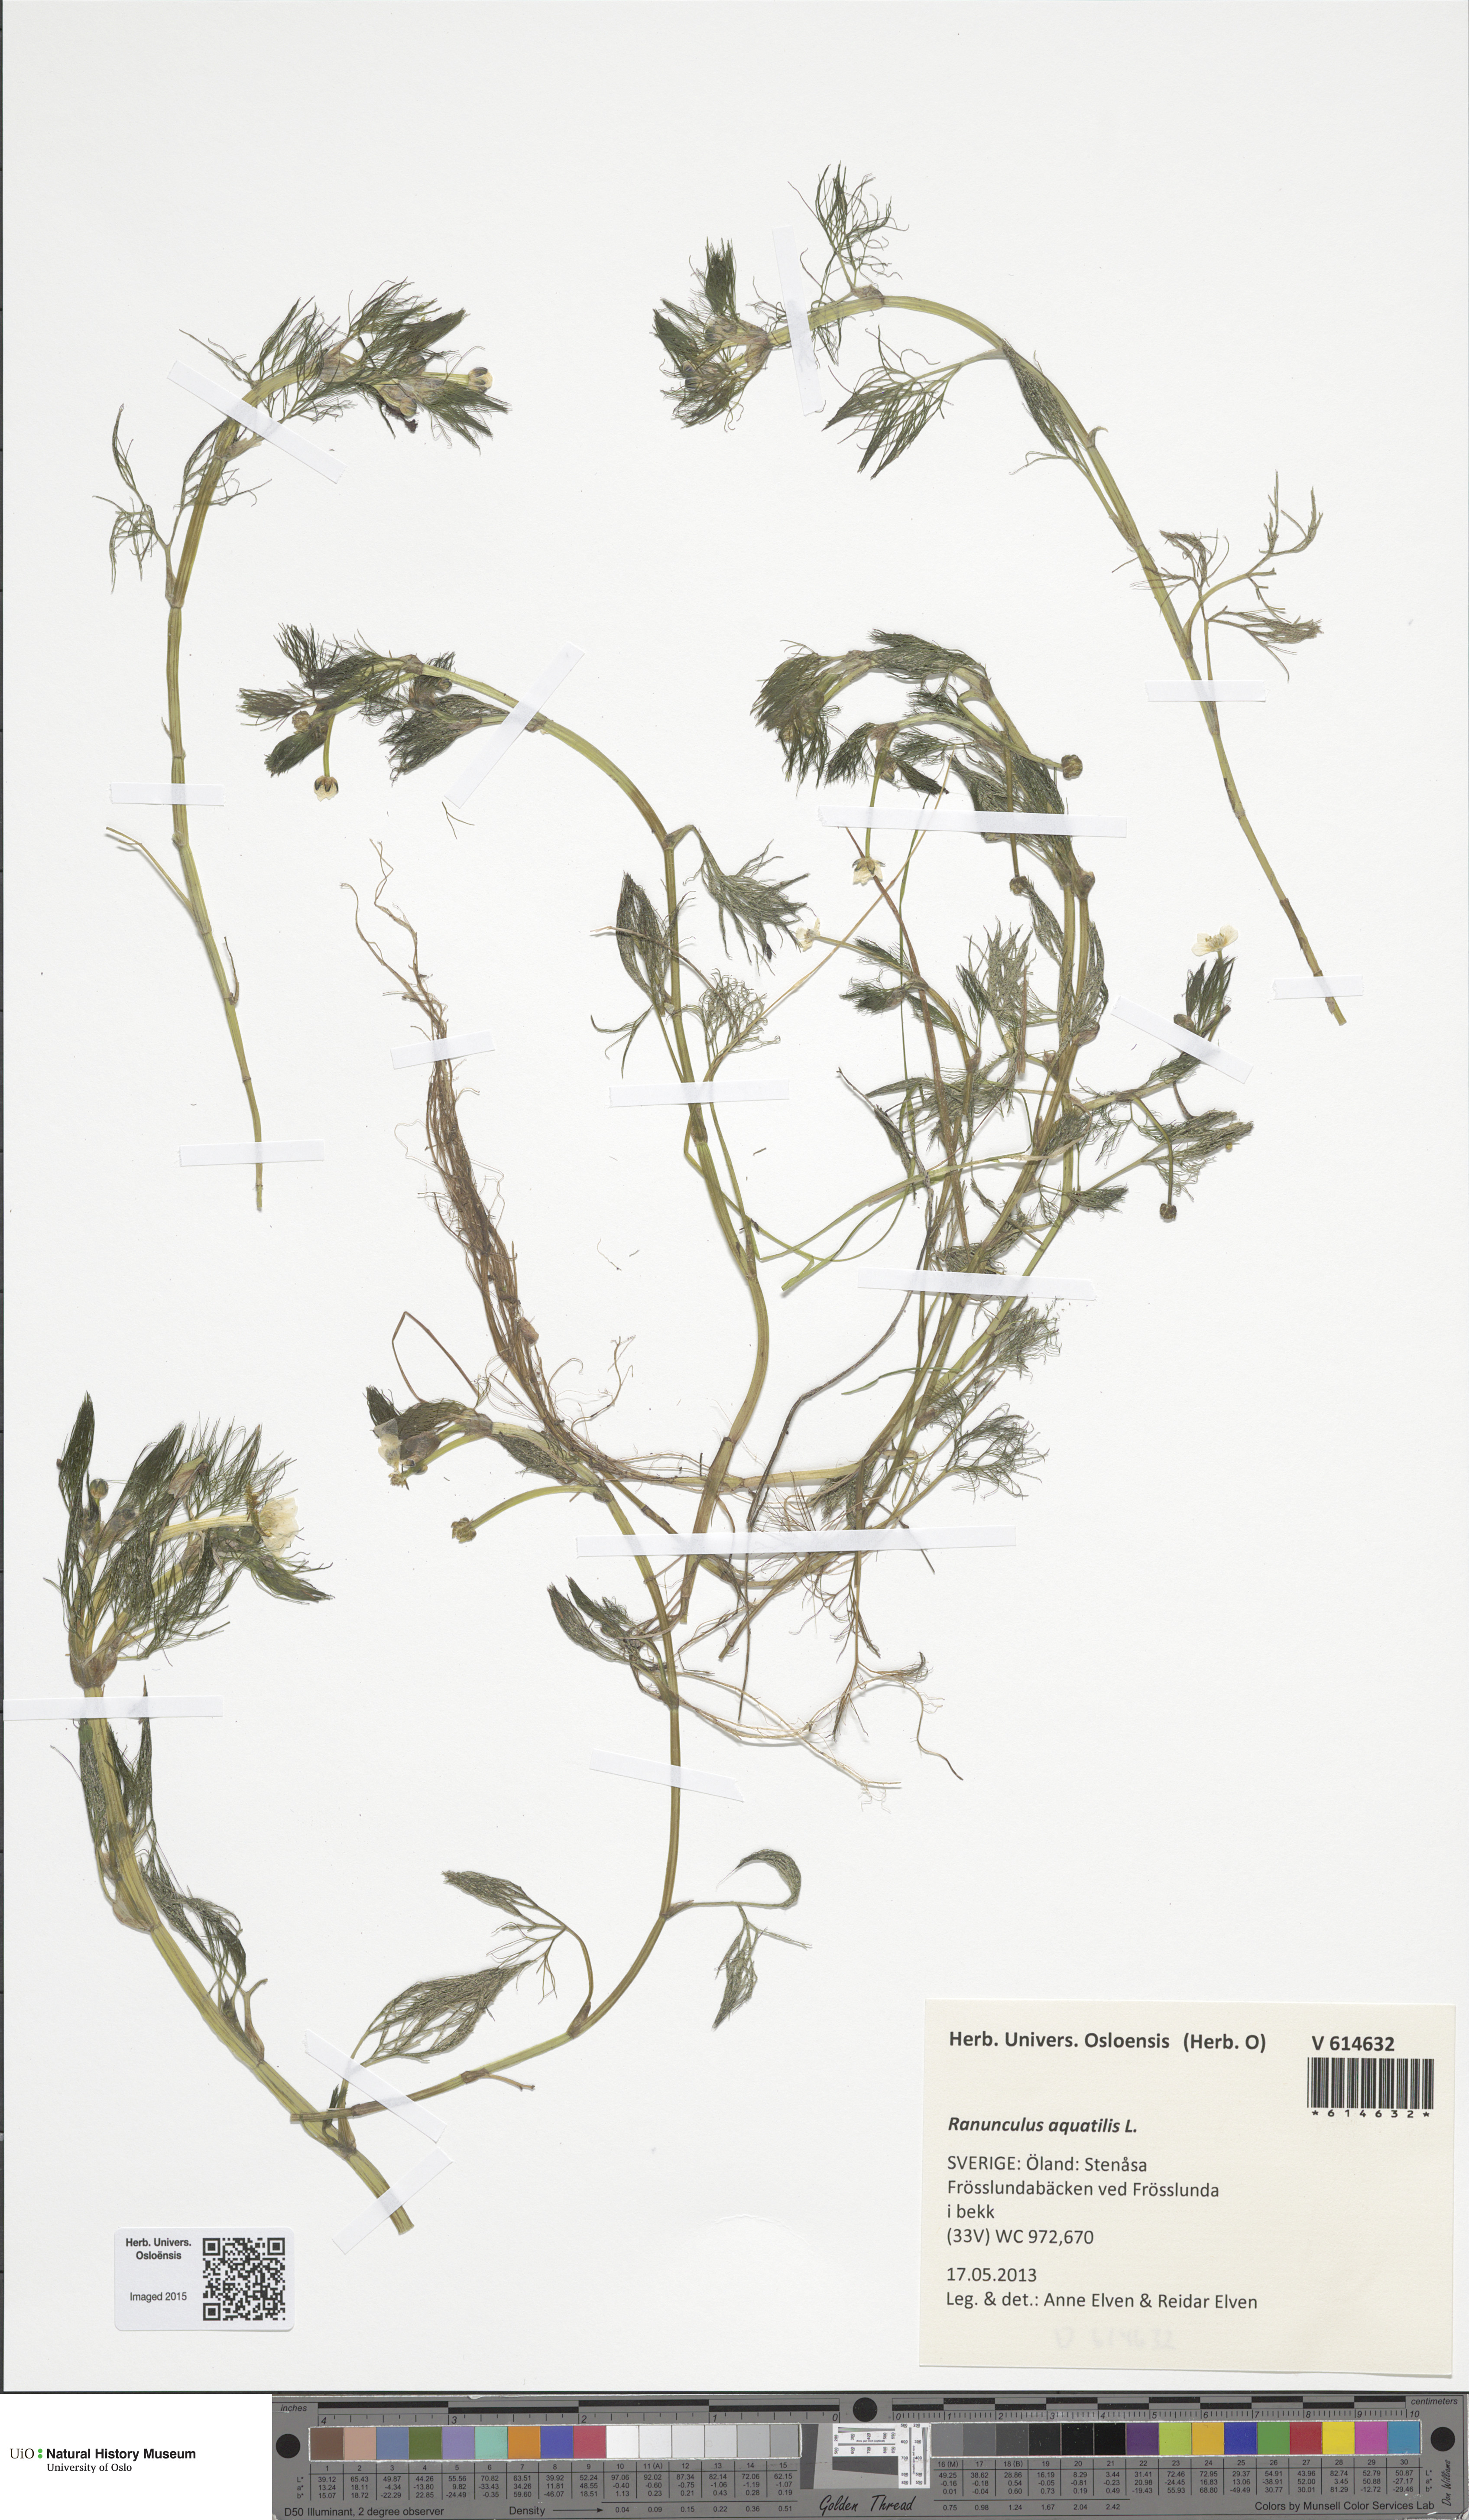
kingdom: Plantae
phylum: Tracheophyta
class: Magnoliopsida
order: Ranunculales
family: Ranunculaceae
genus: Ranunculus
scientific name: Ranunculus aquatilis
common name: Common water-crowfoot
